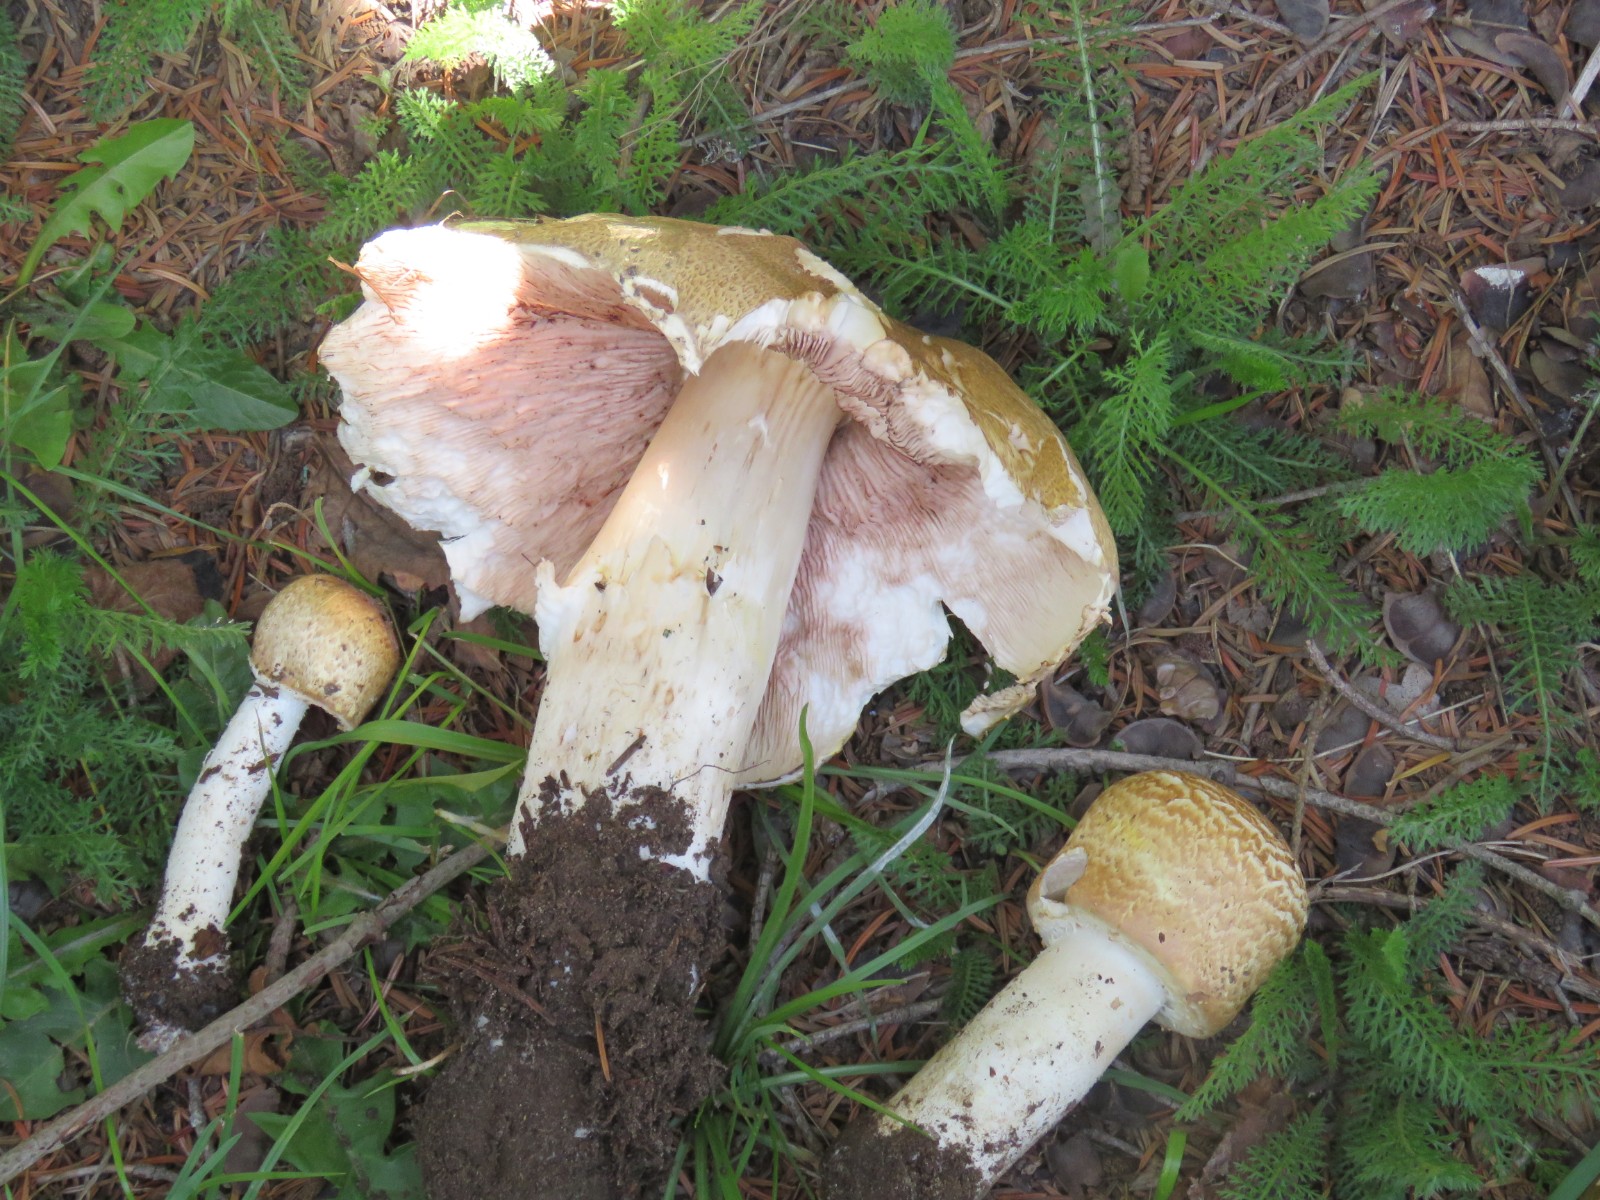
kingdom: Fungi
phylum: Basidiomycota
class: Agaricomycetes
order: Agaricales
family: Agaricaceae
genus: Agaricus
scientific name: Agaricus augustus
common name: prægtig champignon
